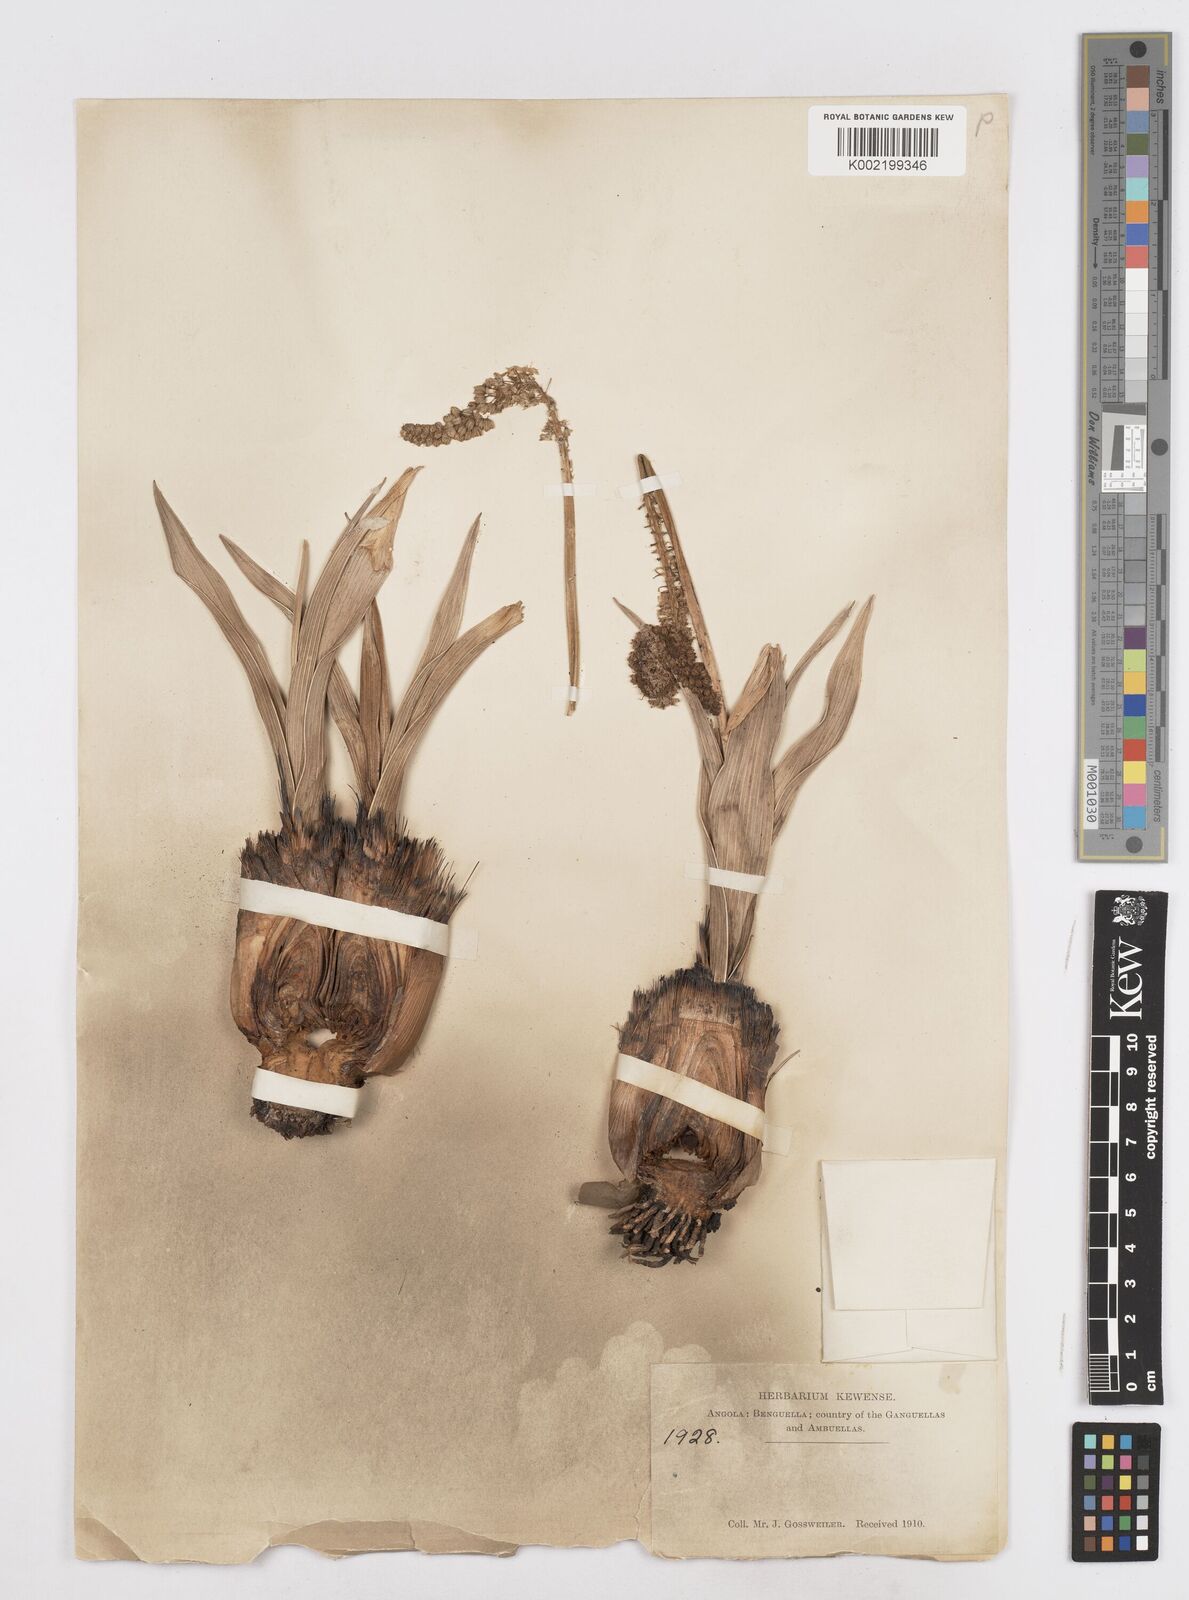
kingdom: Plantae
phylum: Tracheophyta
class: Liliopsida
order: Asparagales
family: Asparagaceae
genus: Schizocarphus
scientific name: Schizocarphus nervosus
